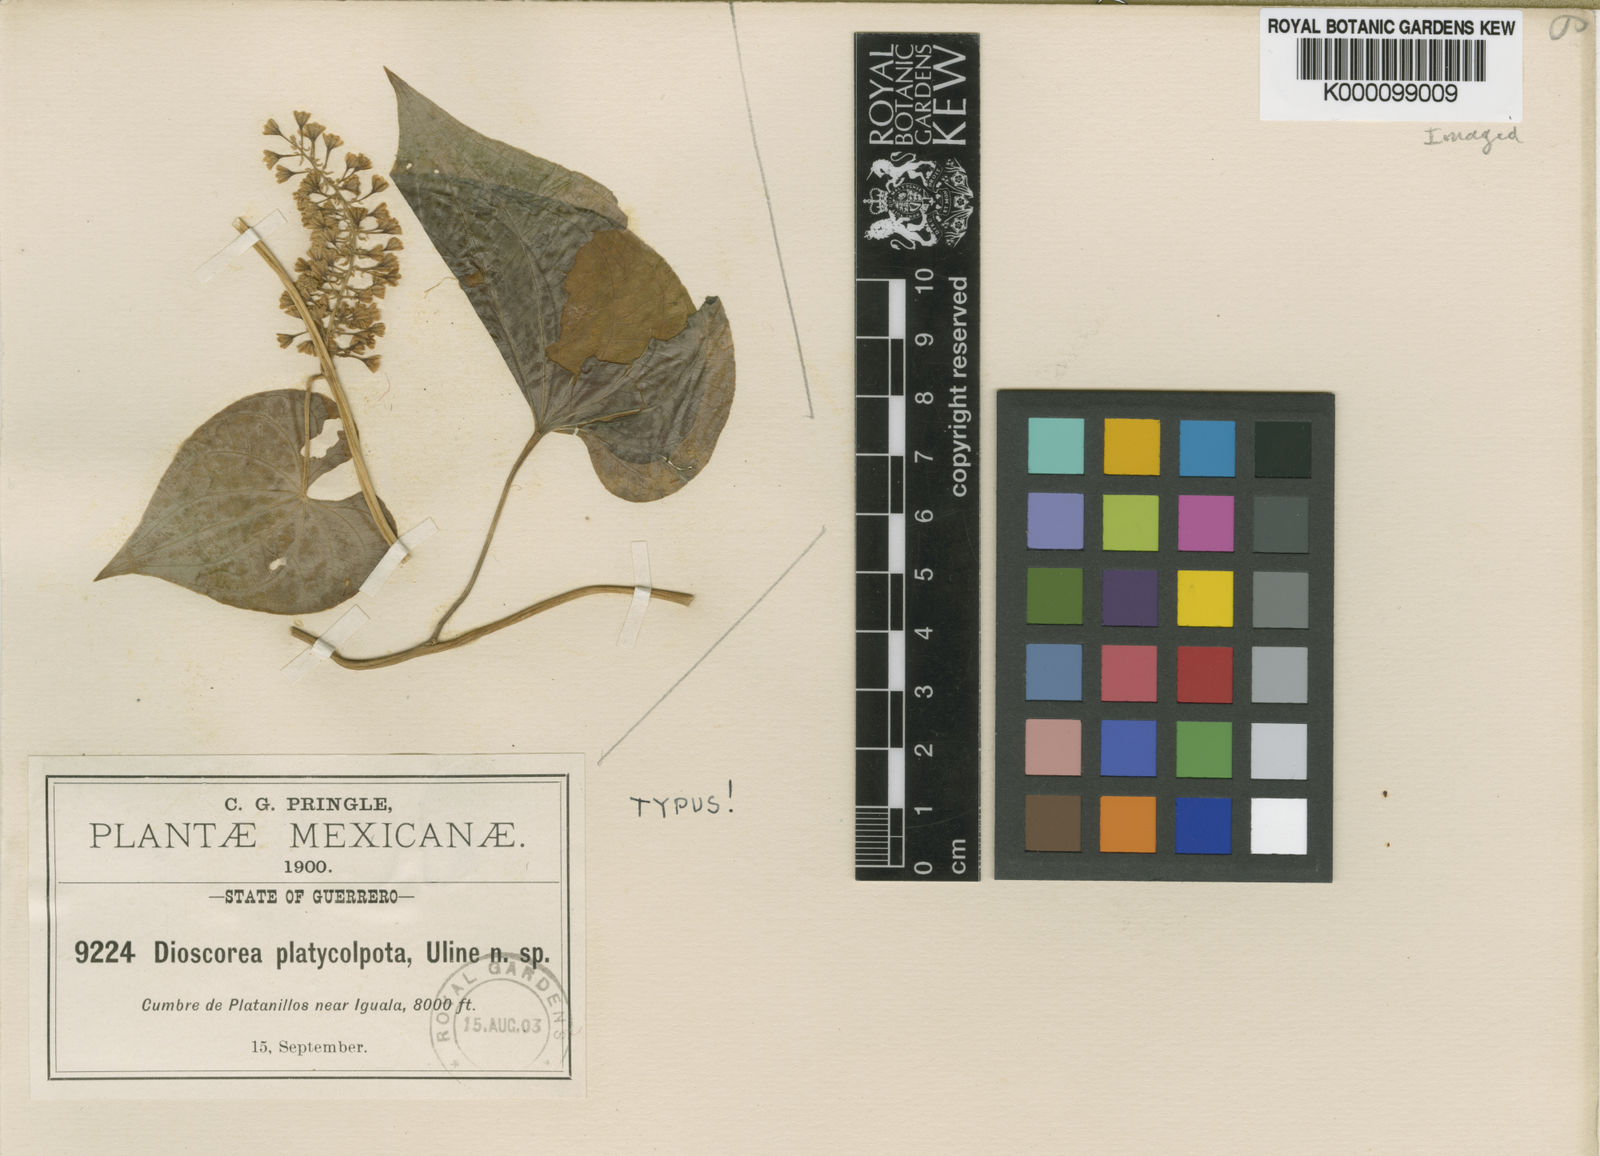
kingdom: Plantae
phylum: Tracheophyta
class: Liliopsida
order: Dioscoreales
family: Dioscoreaceae
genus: Dioscorea
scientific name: Dioscorea platycolpota
